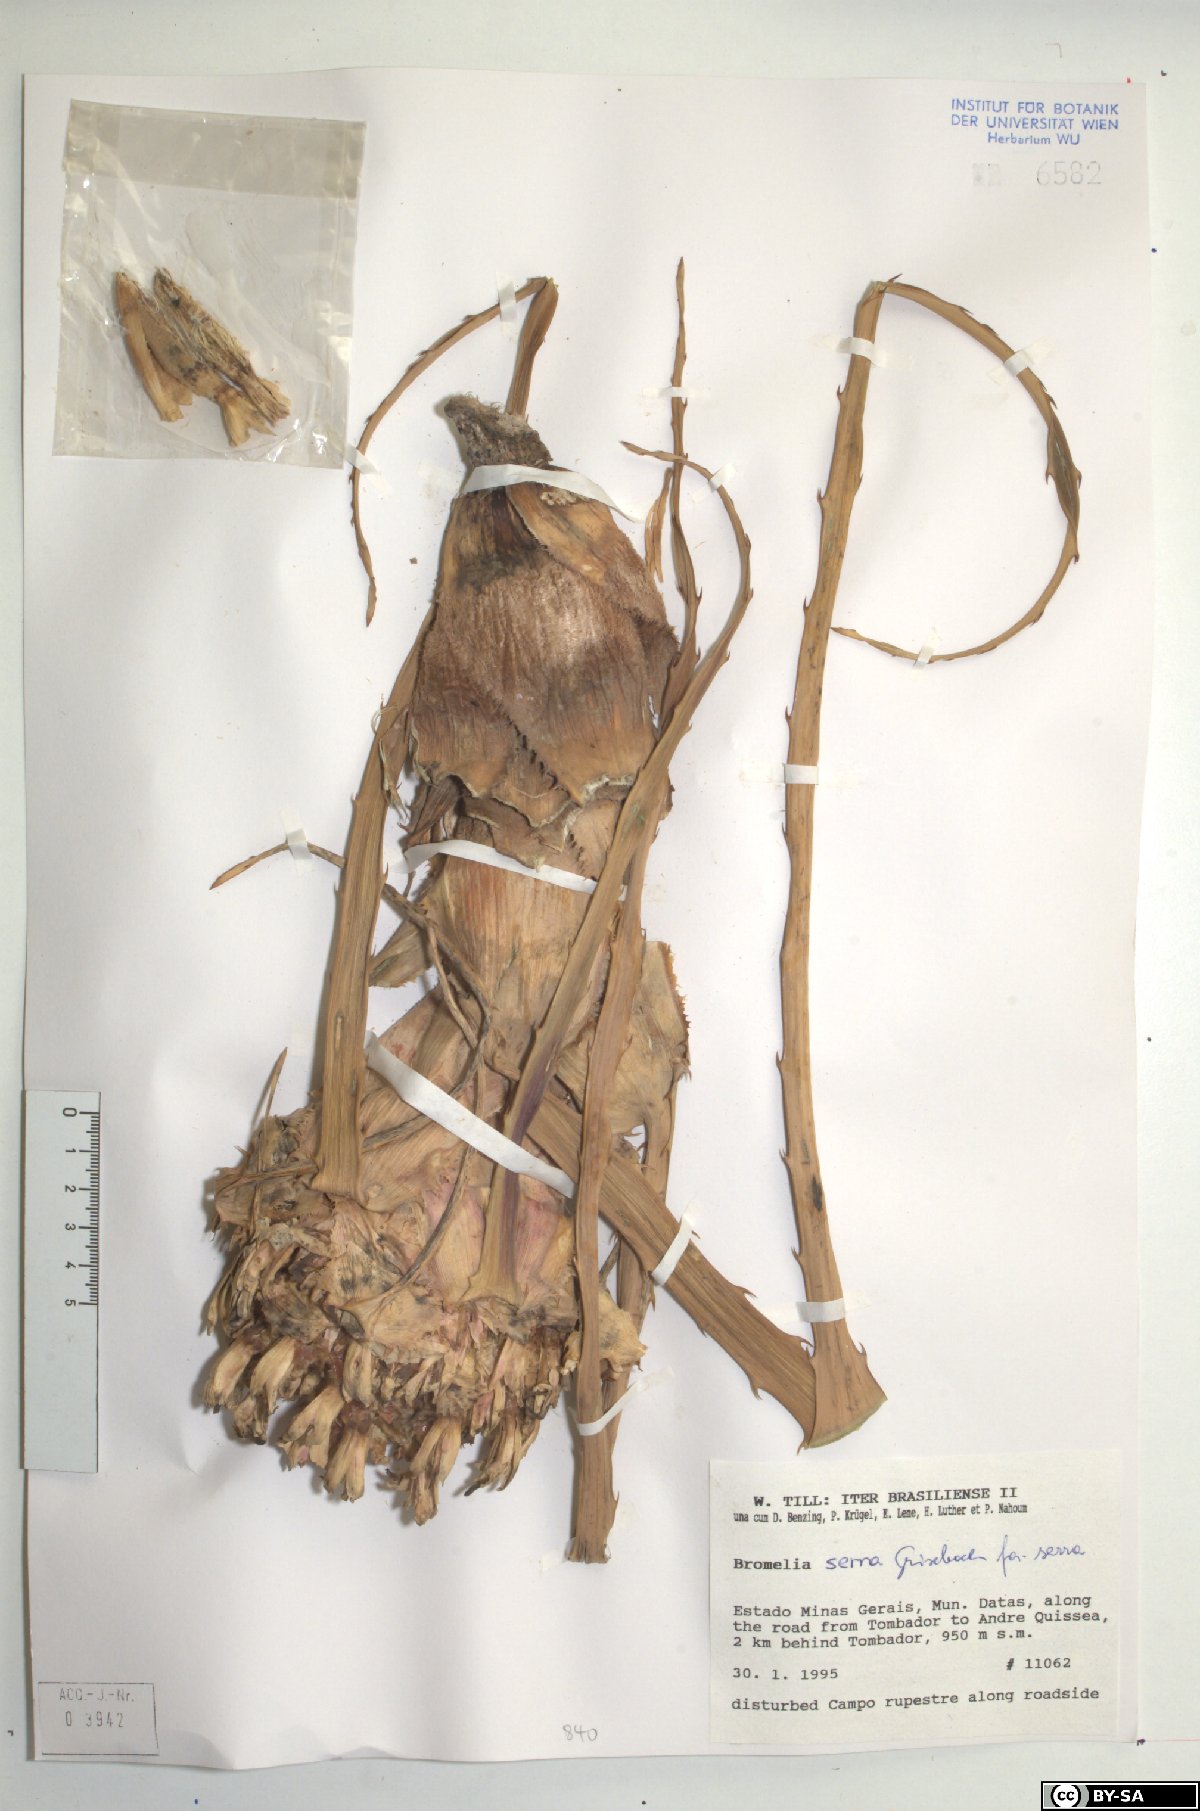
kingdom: Plantae
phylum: Tracheophyta
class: Liliopsida
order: Poales
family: Bromeliaceae
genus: Bromelia
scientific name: Bromelia serra
